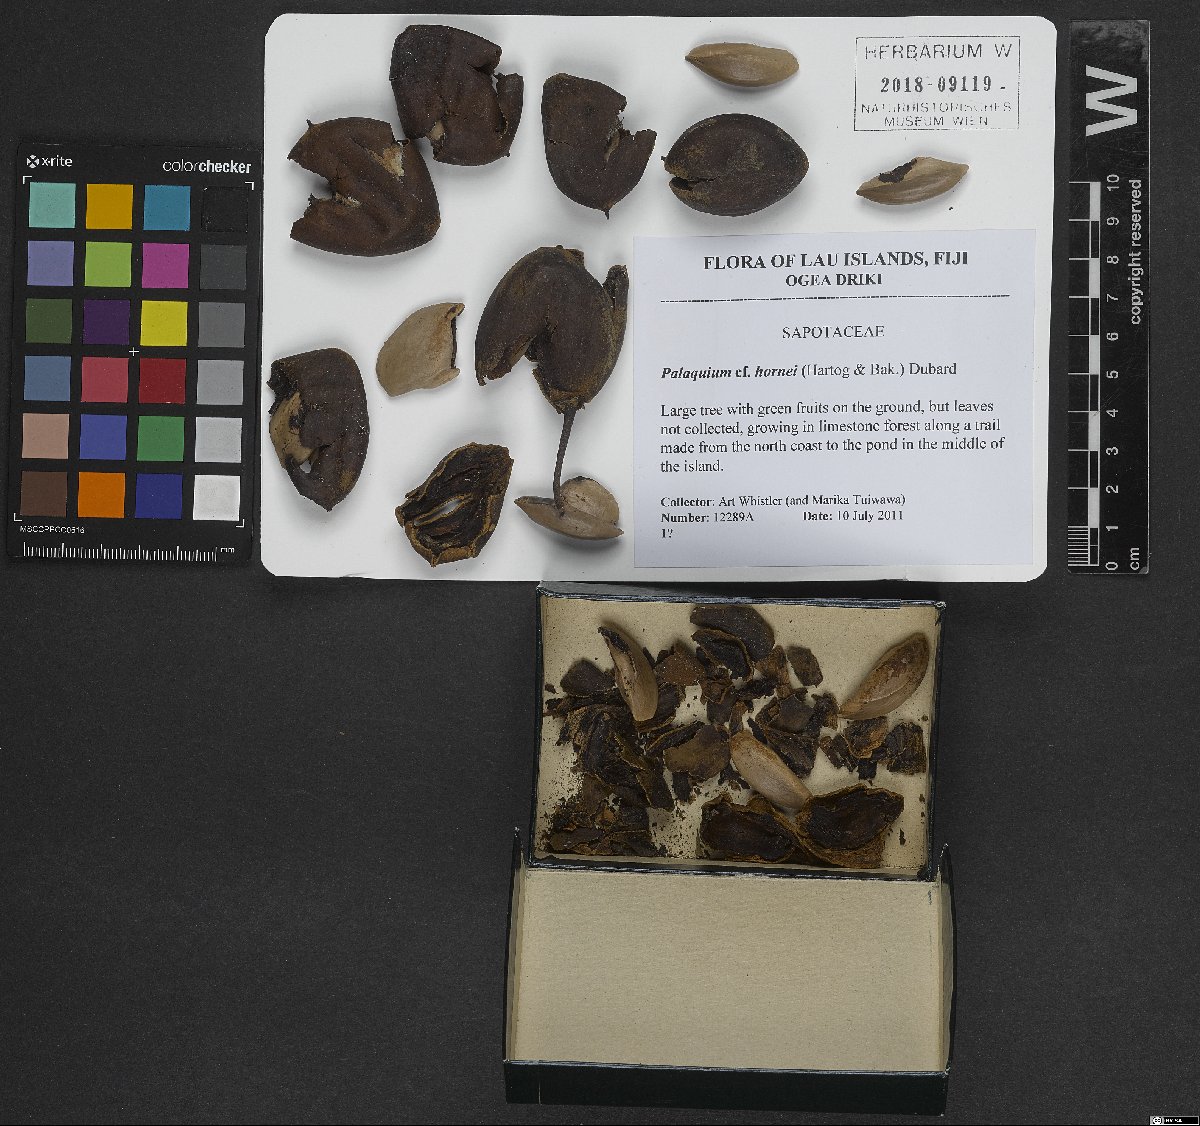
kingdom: Plantae
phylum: Tracheophyta
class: Magnoliopsida
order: Ericales
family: Sapotaceae
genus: Palaquium
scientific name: Palaquium hornei
